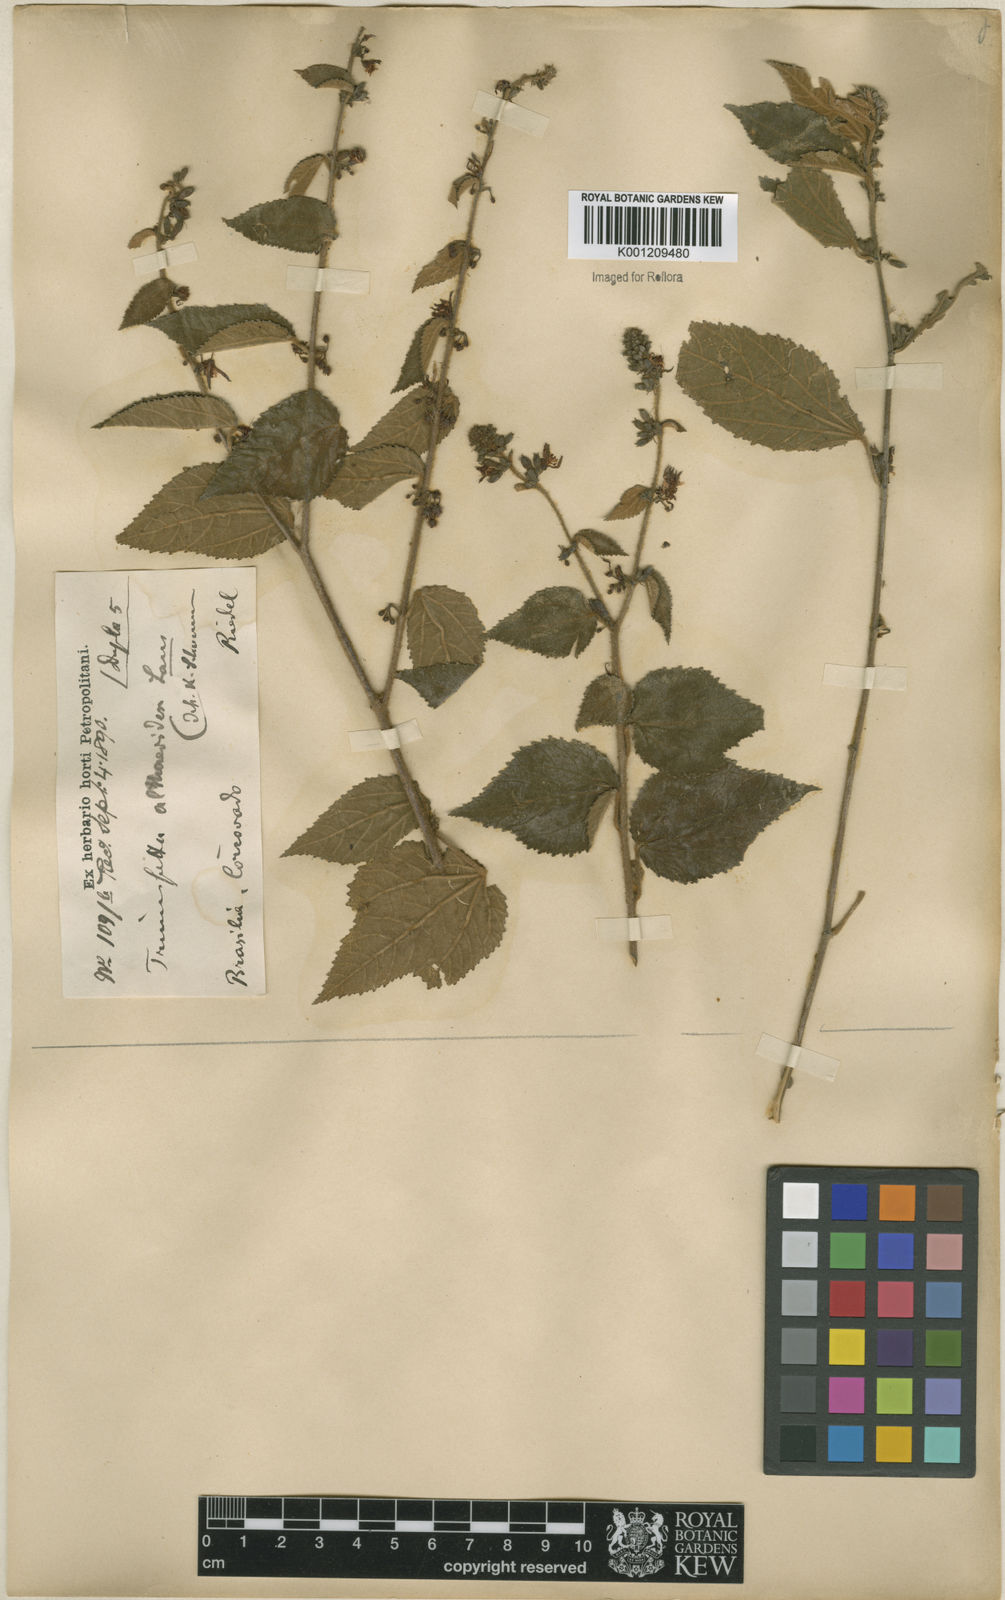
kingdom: Plantae
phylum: Tracheophyta
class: Magnoliopsida
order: Malvales
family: Malvaceae
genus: Triumfetta
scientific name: Triumfetta althaeoides
